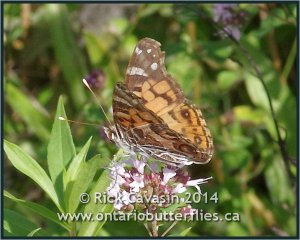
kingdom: Animalia
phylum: Arthropoda
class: Insecta
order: Lepidoptera
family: Nymphalidae
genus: Vanessa
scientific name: Vanessa virginiensis
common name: American Lady
